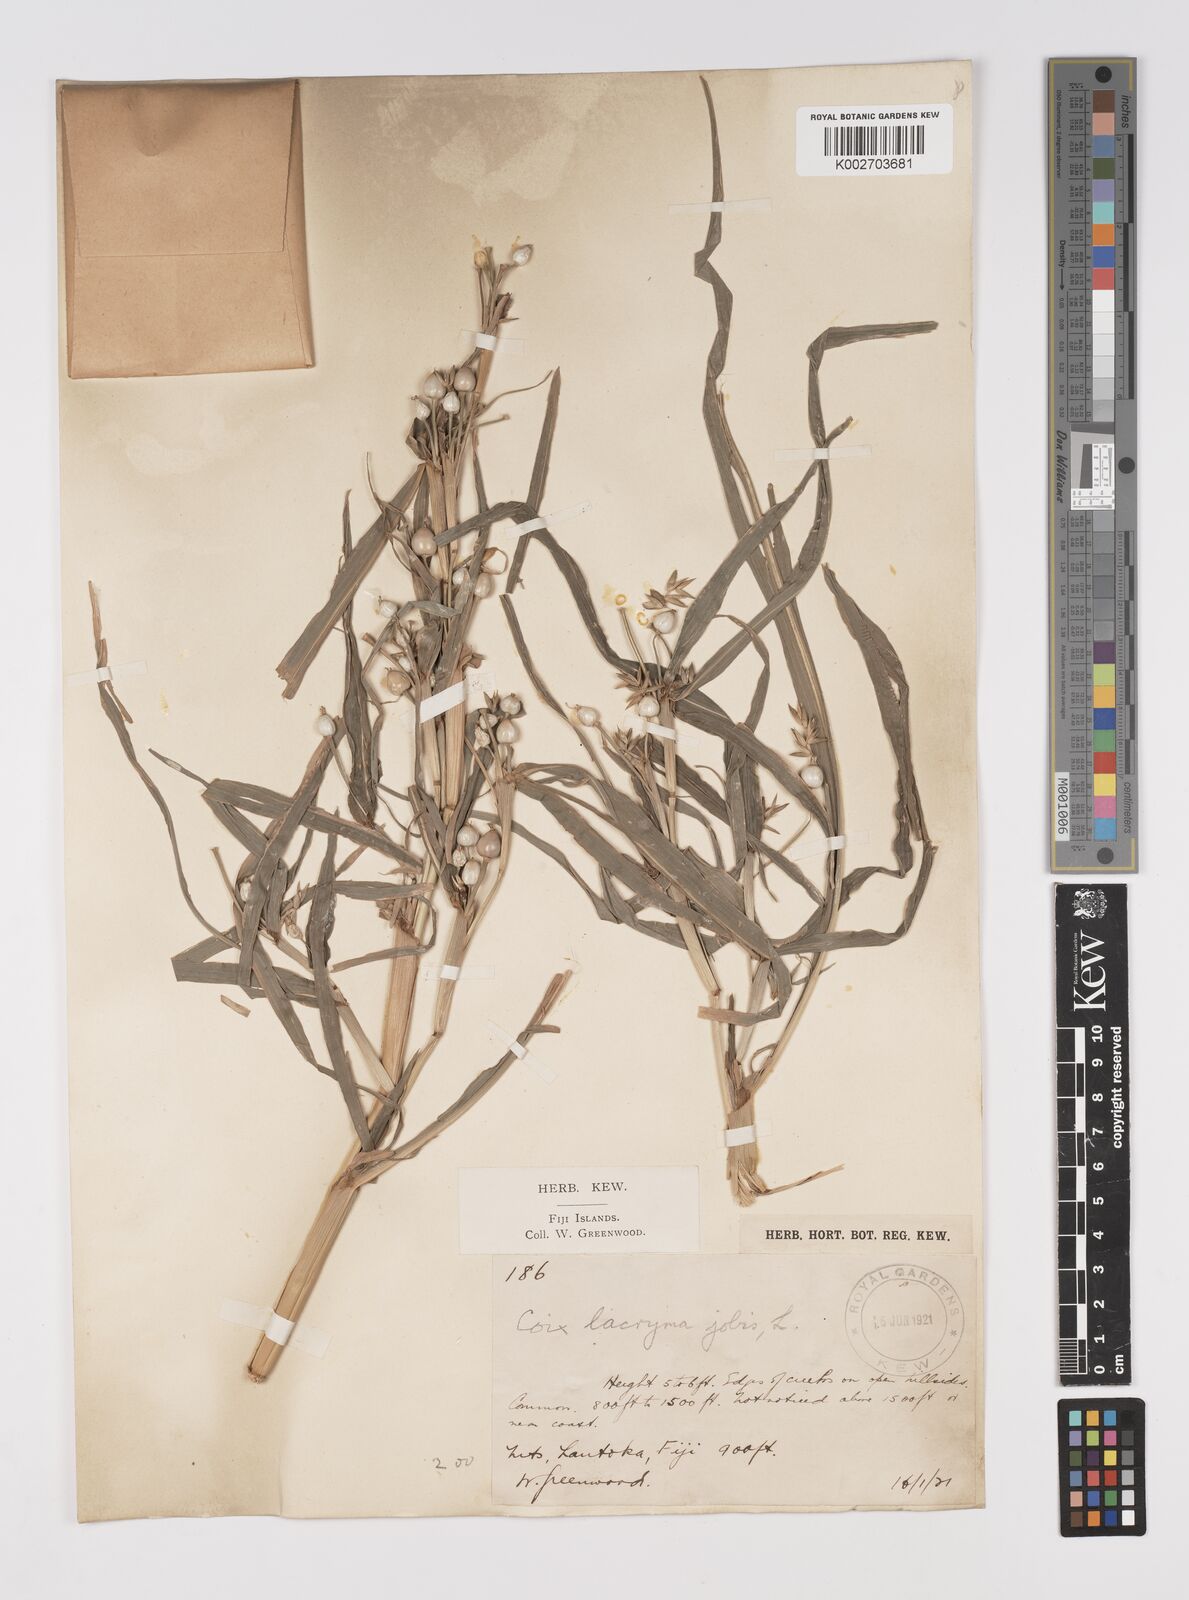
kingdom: Plantae
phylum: Tracheophyta
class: Liliopsida
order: Poales
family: Poaceae
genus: Coix
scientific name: Coix lacryma-jobi
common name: Job's tears
